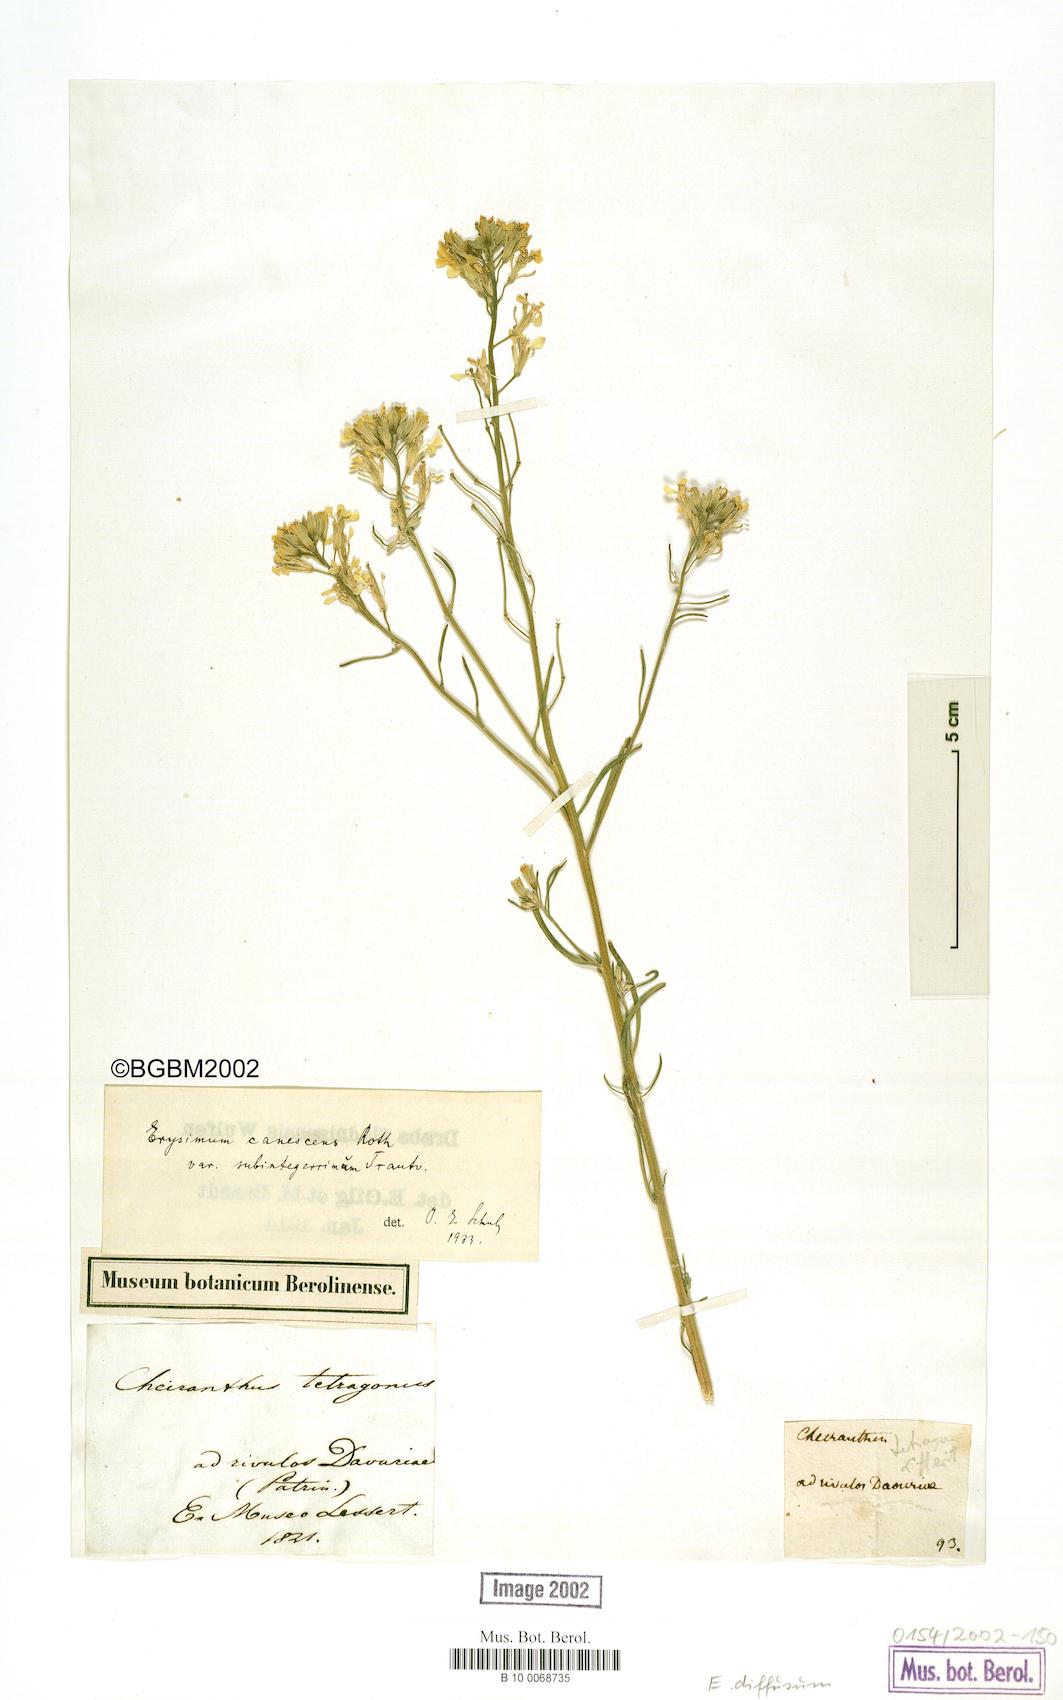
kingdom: Plantae
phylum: Tracheophyta
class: Magnoliopsida
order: Brassicales
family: Brassicaceae
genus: Erysimum
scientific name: Erysimum diffusum
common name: Diffuse wallflower
